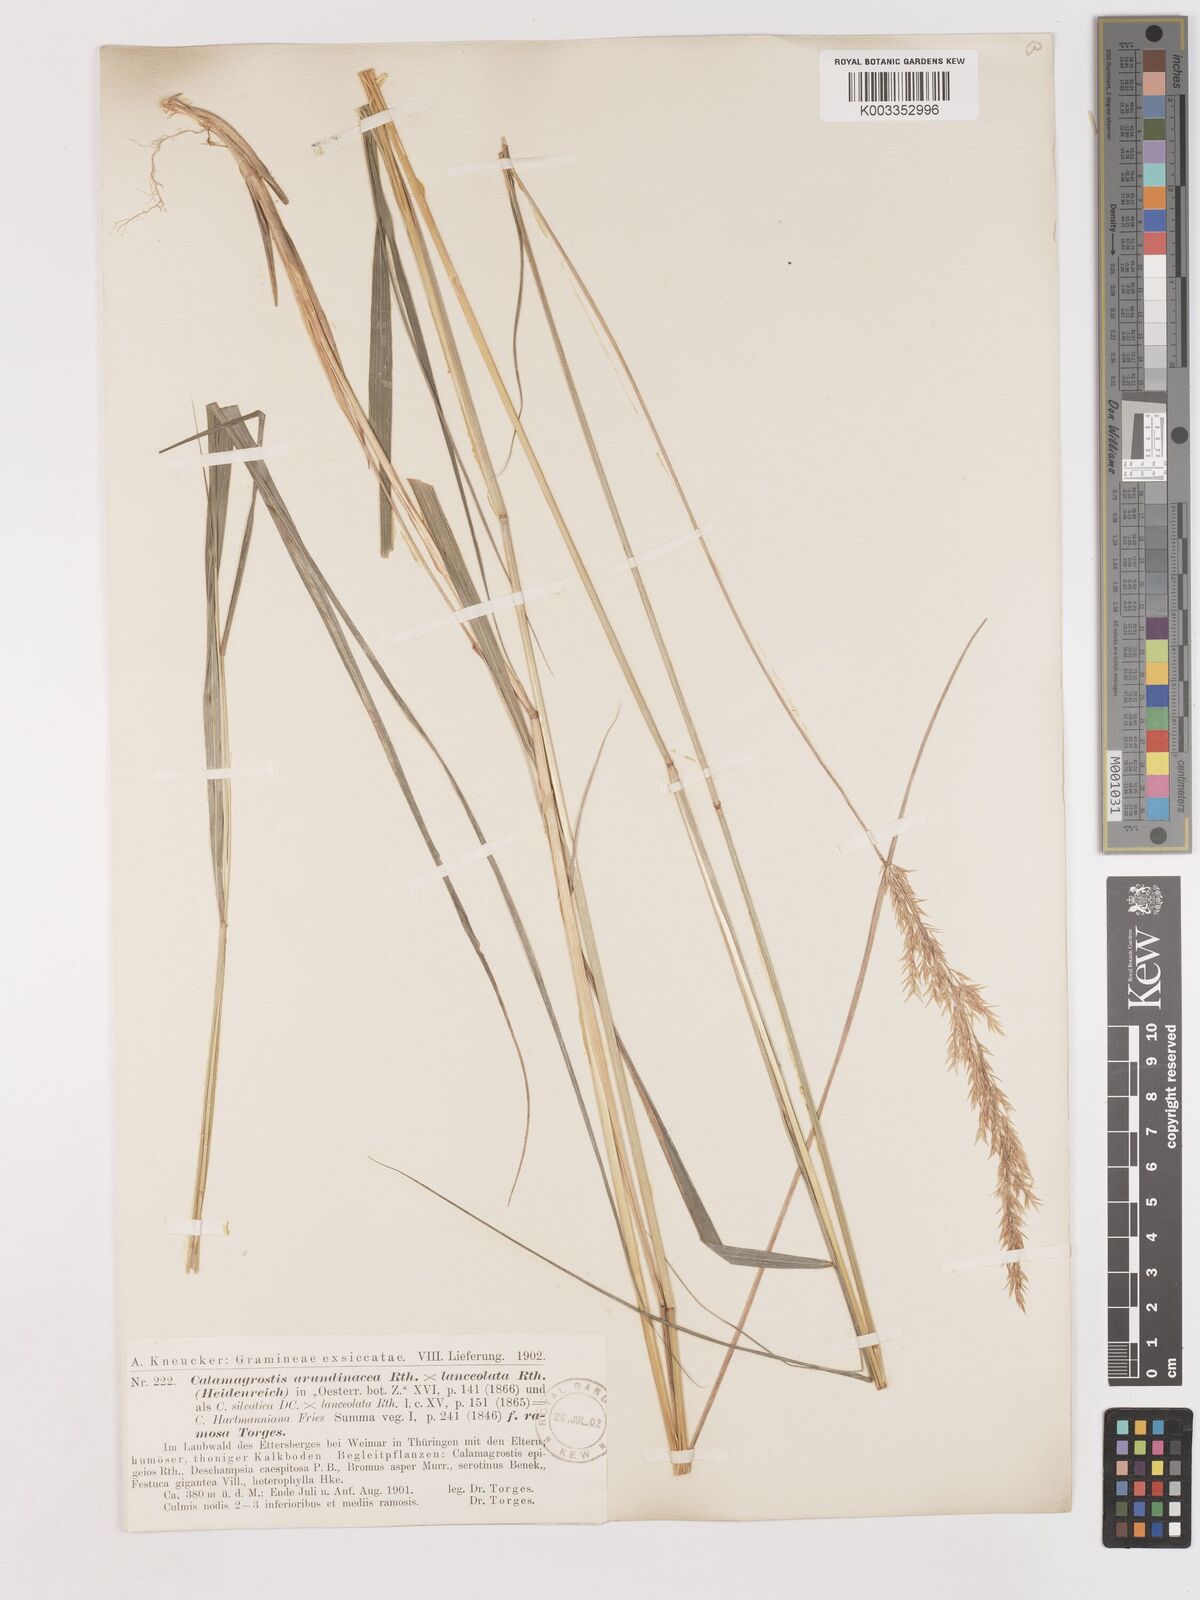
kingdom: Plantae
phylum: Tracheophyta
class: Liliopsida
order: Poales
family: Poaceae
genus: Calamagrostis
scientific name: Calamagrostis canescens
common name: Purple small-reed
